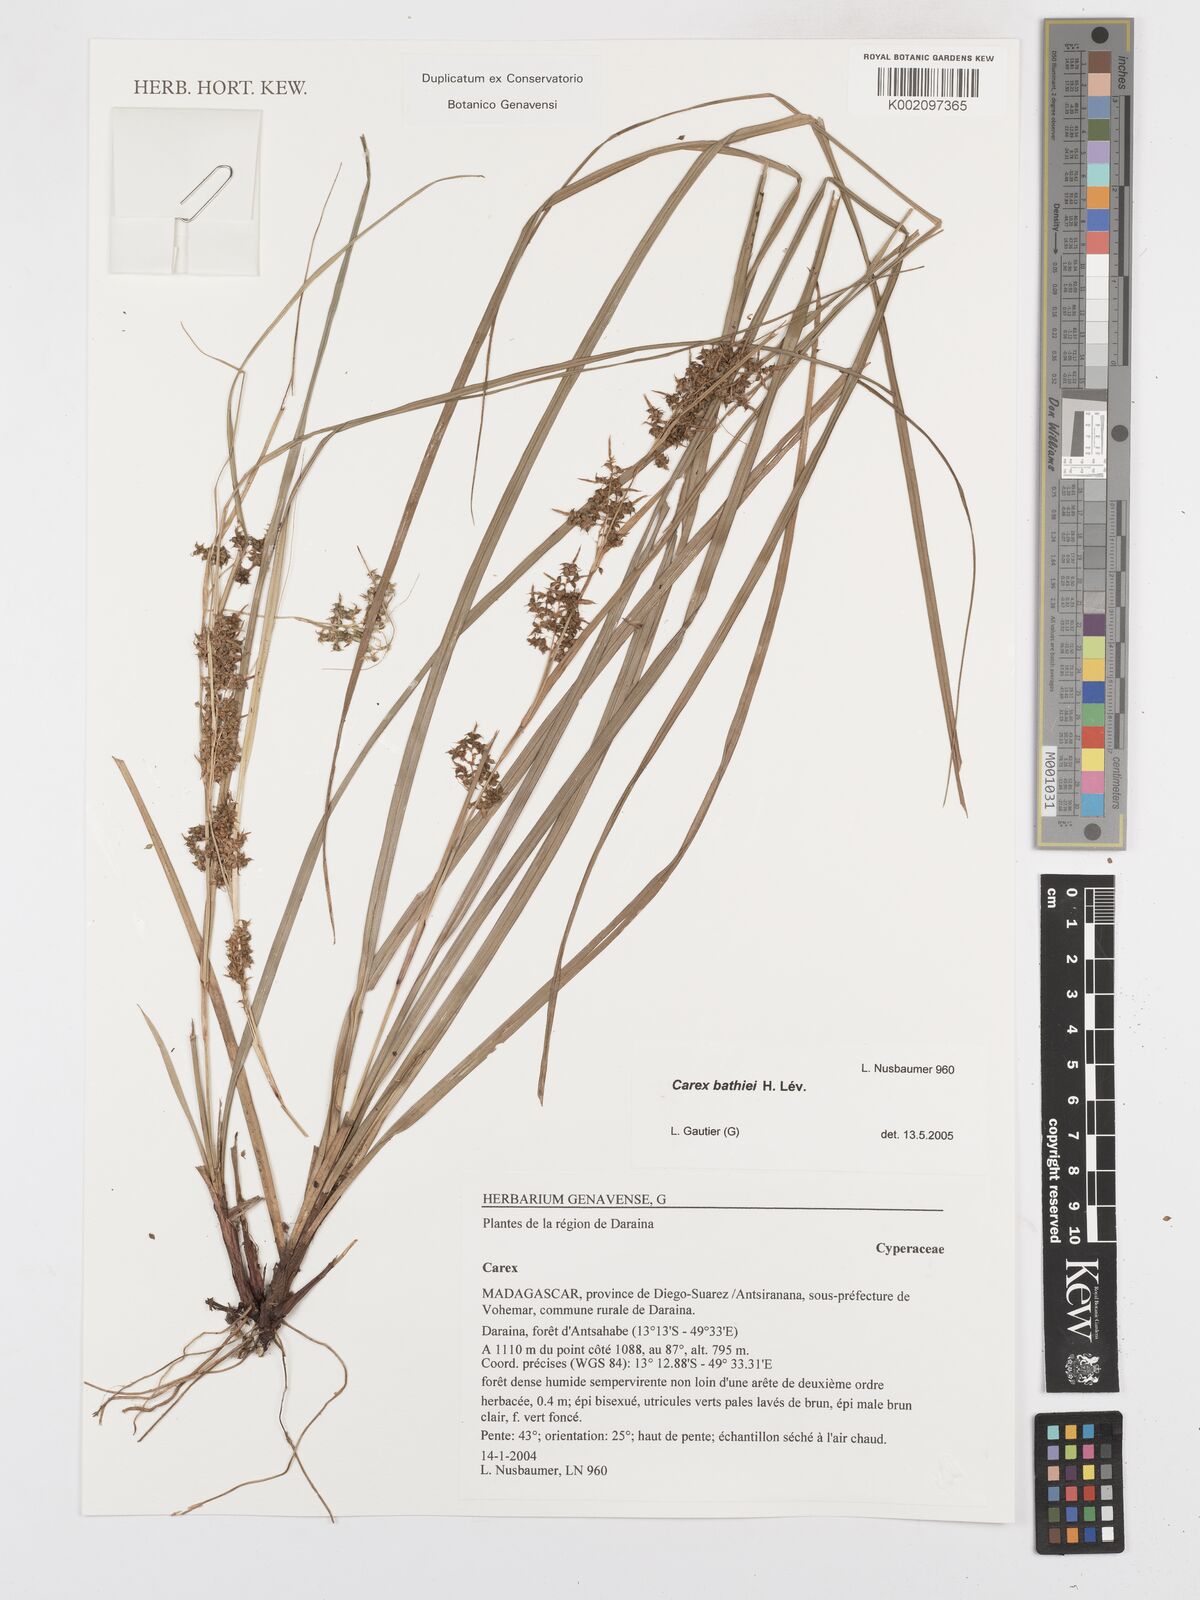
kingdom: Plantae
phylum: Tracheophyta
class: Liliopsida
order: Poales
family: Cyperaceae
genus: Carex
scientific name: Carex bathiei
